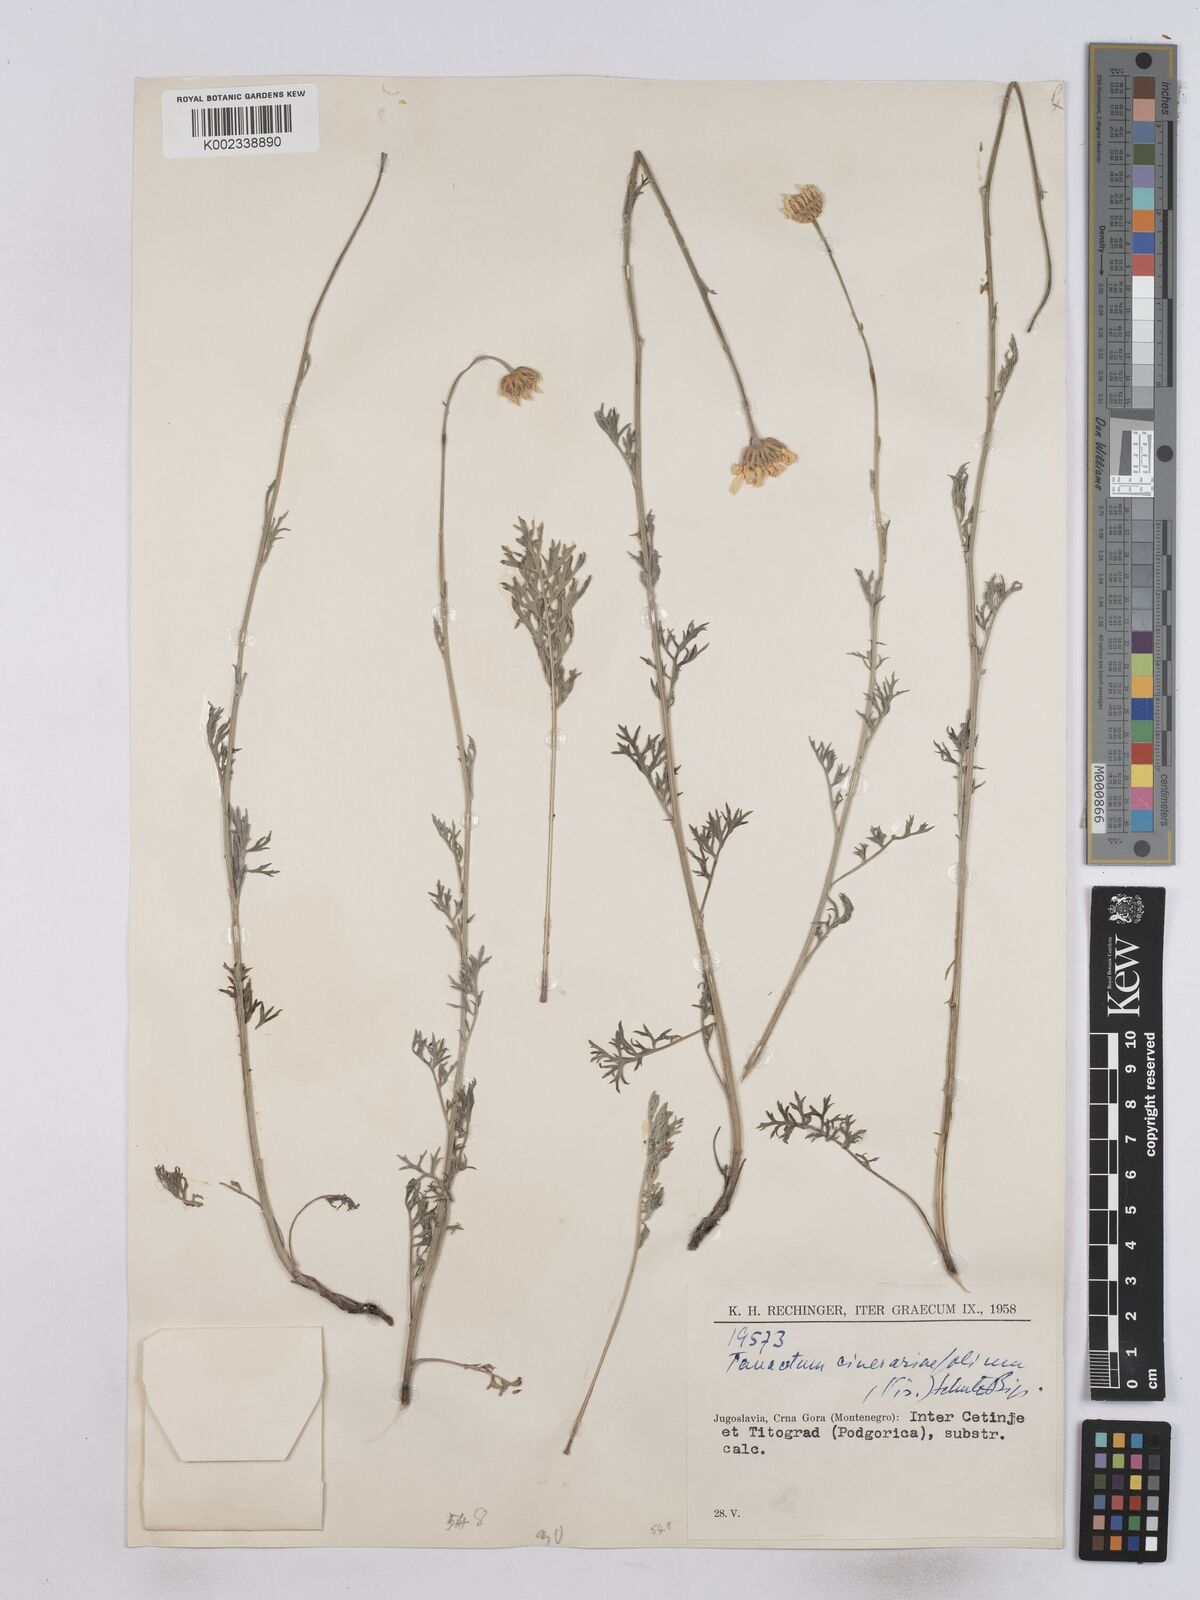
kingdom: Plantae
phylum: Tracheophyta
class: Magnoliopsida
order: Asterales
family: Asteraceae
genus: Tanacetum
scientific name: Tanacetum cinerariifolium
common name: Dalmatian pyrethrum
